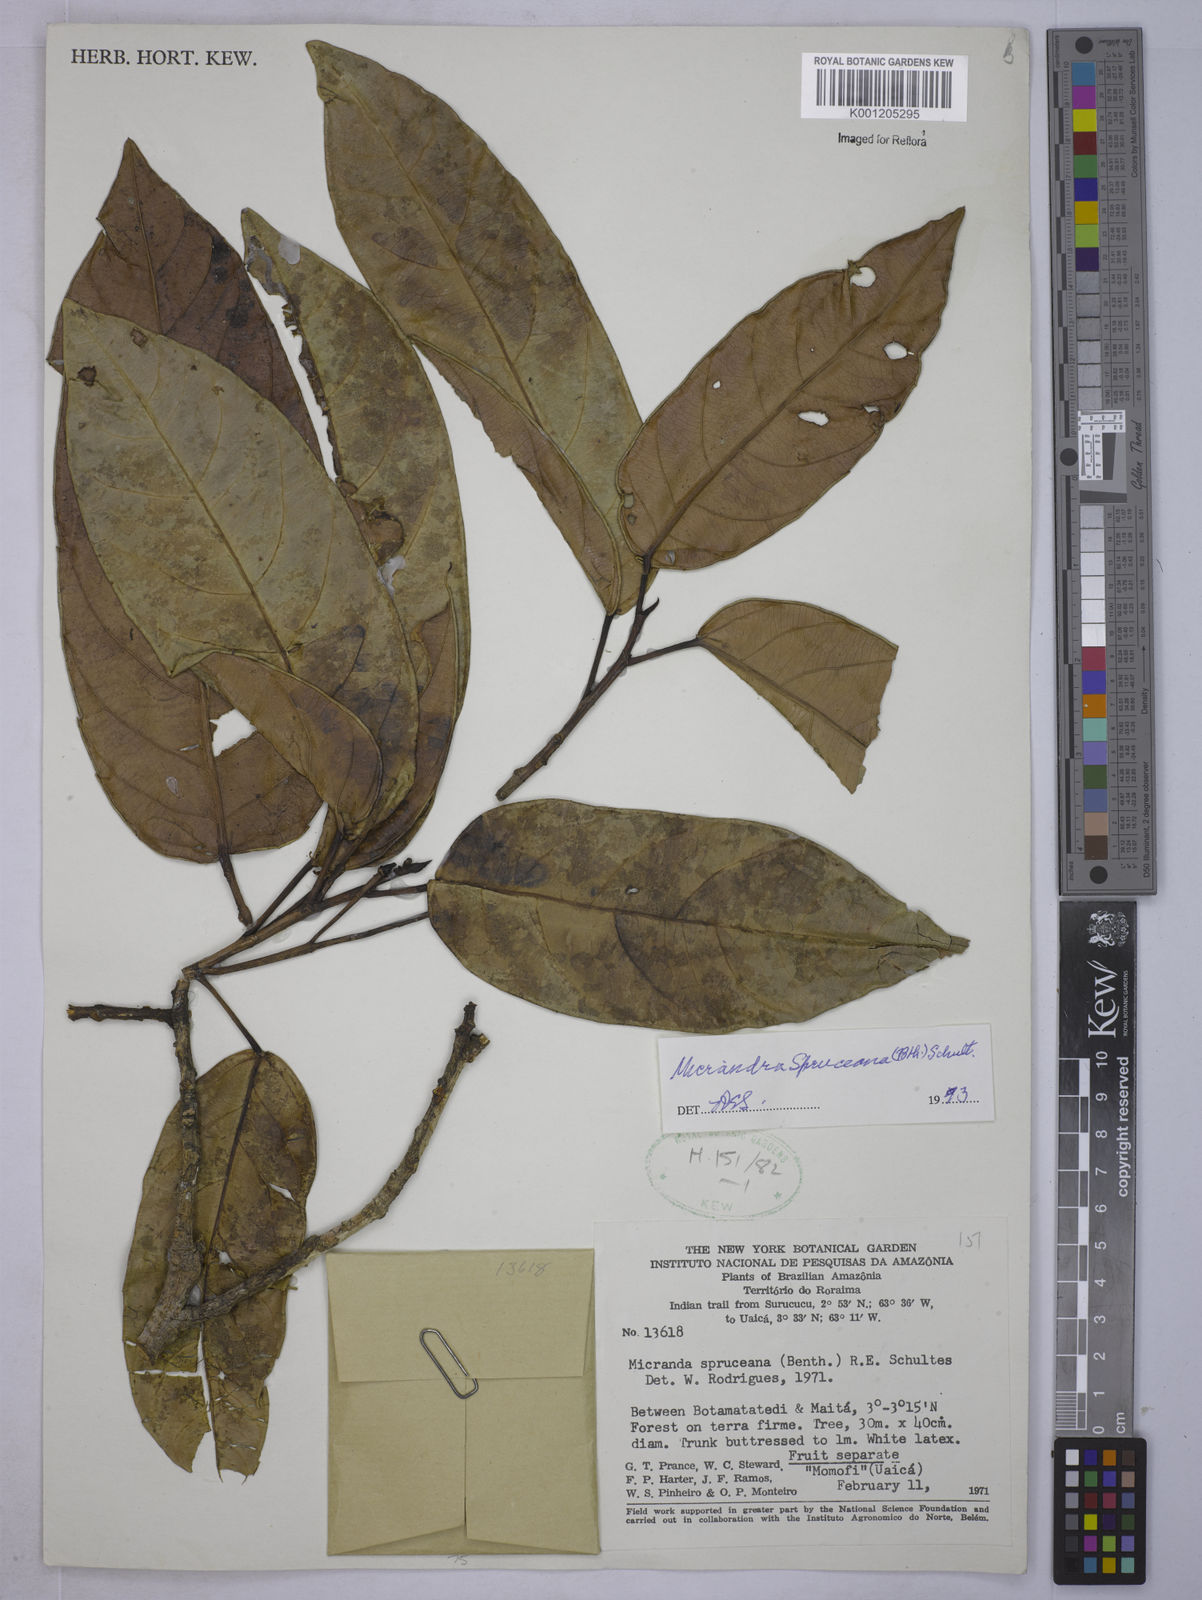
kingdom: Plantae
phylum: Tracheophyta
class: Magnoliopsida
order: Malpighiales
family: Euphorbiaceae
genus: Micrandra
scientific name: Micrandra spruceana
